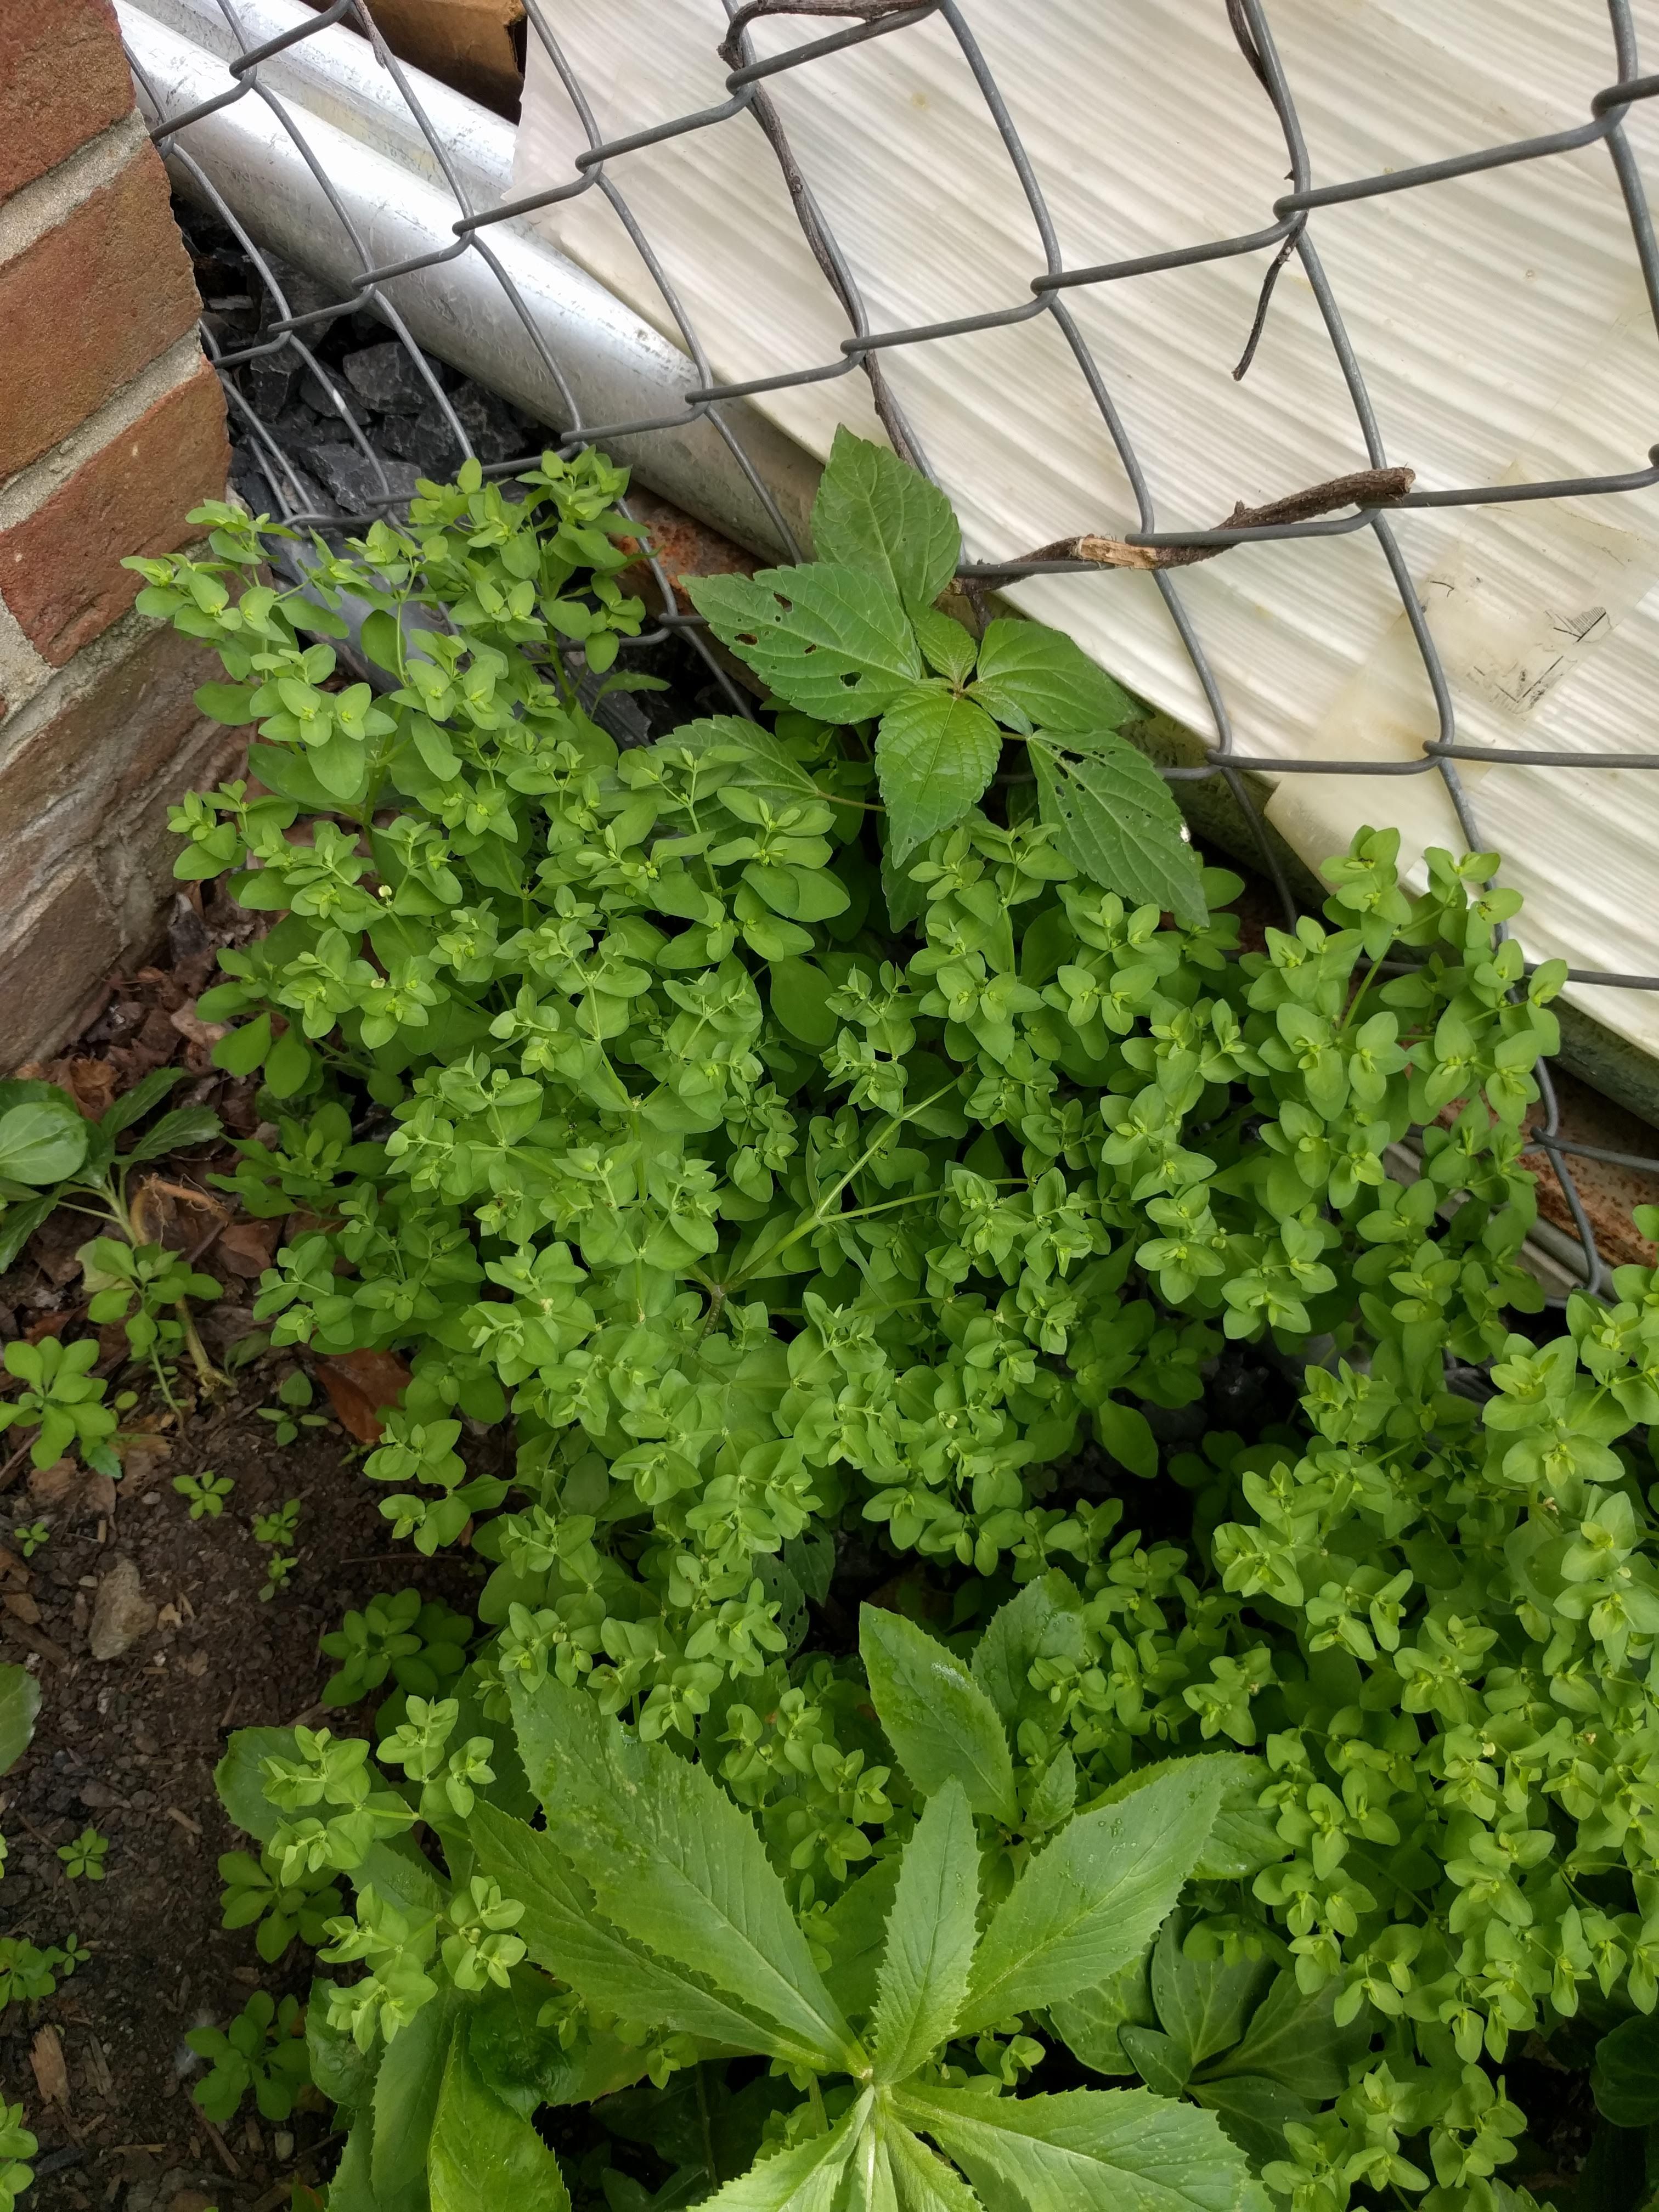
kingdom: Plantae
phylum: Tracheophyta
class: Magnoliopsida
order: Malpighiales
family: Euphorbiaceae
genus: Euphorbia
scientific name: Euphorbia peplus
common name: Petty spurge
